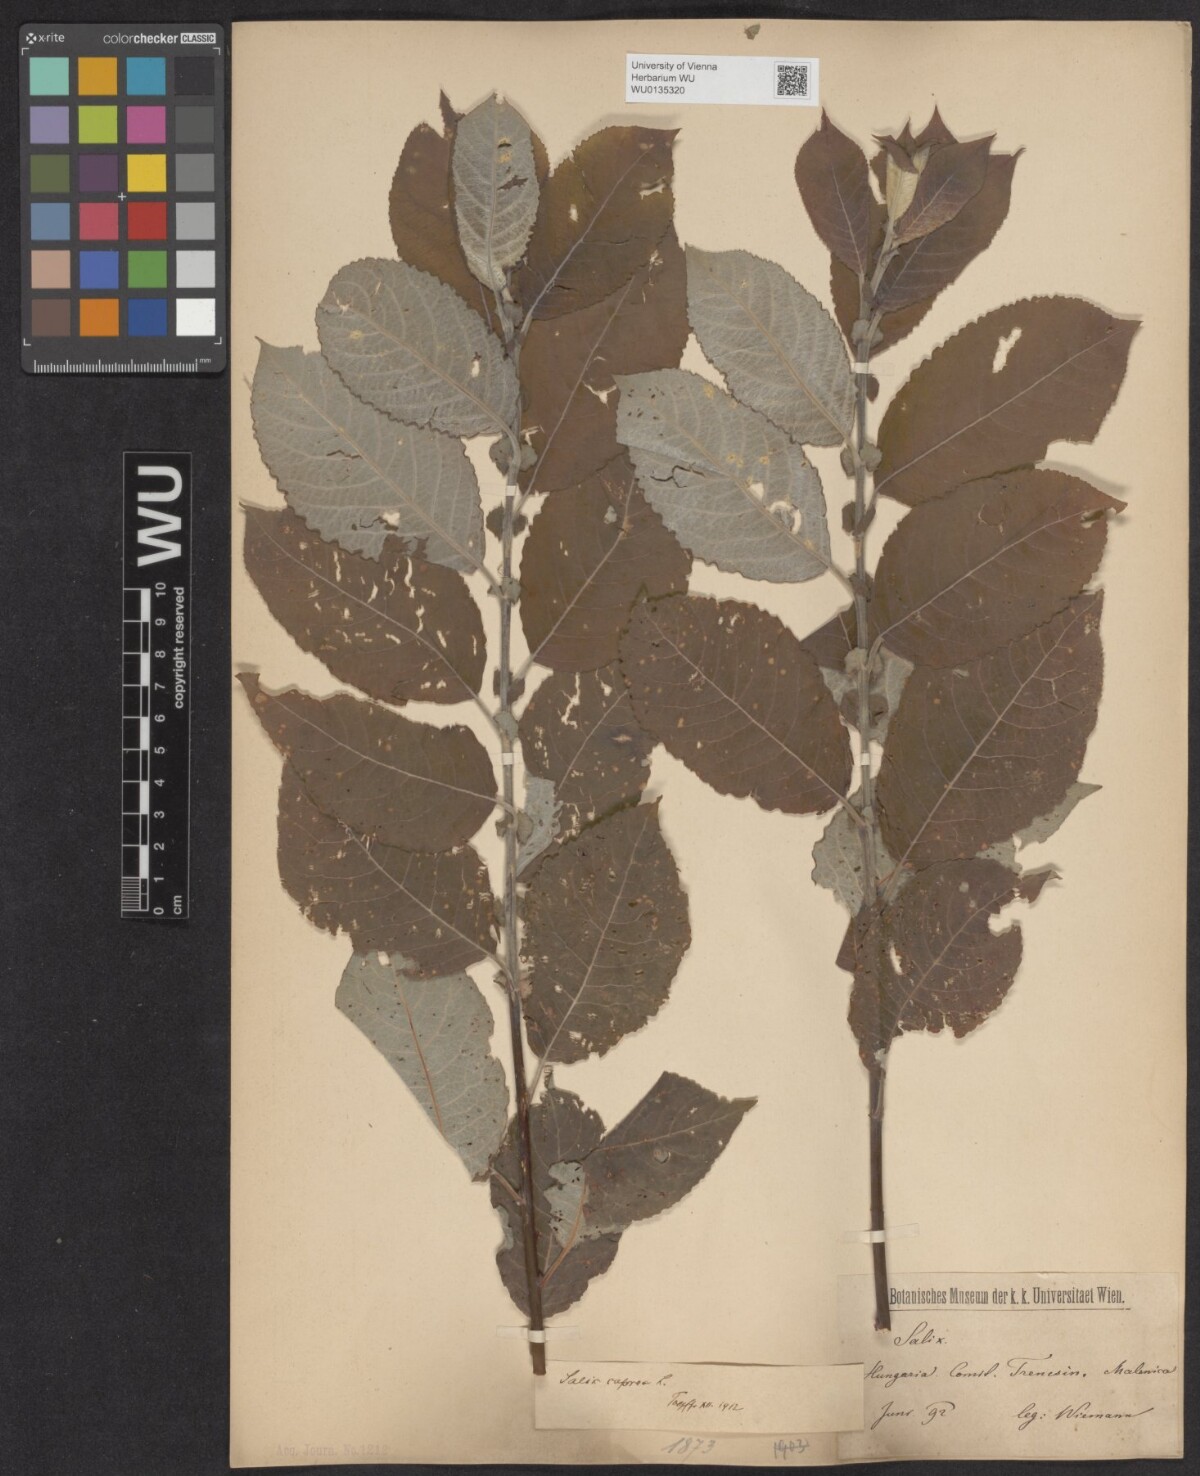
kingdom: Plantae
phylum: Tracheophyta
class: Magnoliopsida
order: Malpighiales
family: Salicaceae
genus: Salix
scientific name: Salix caprea
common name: Goat willow
